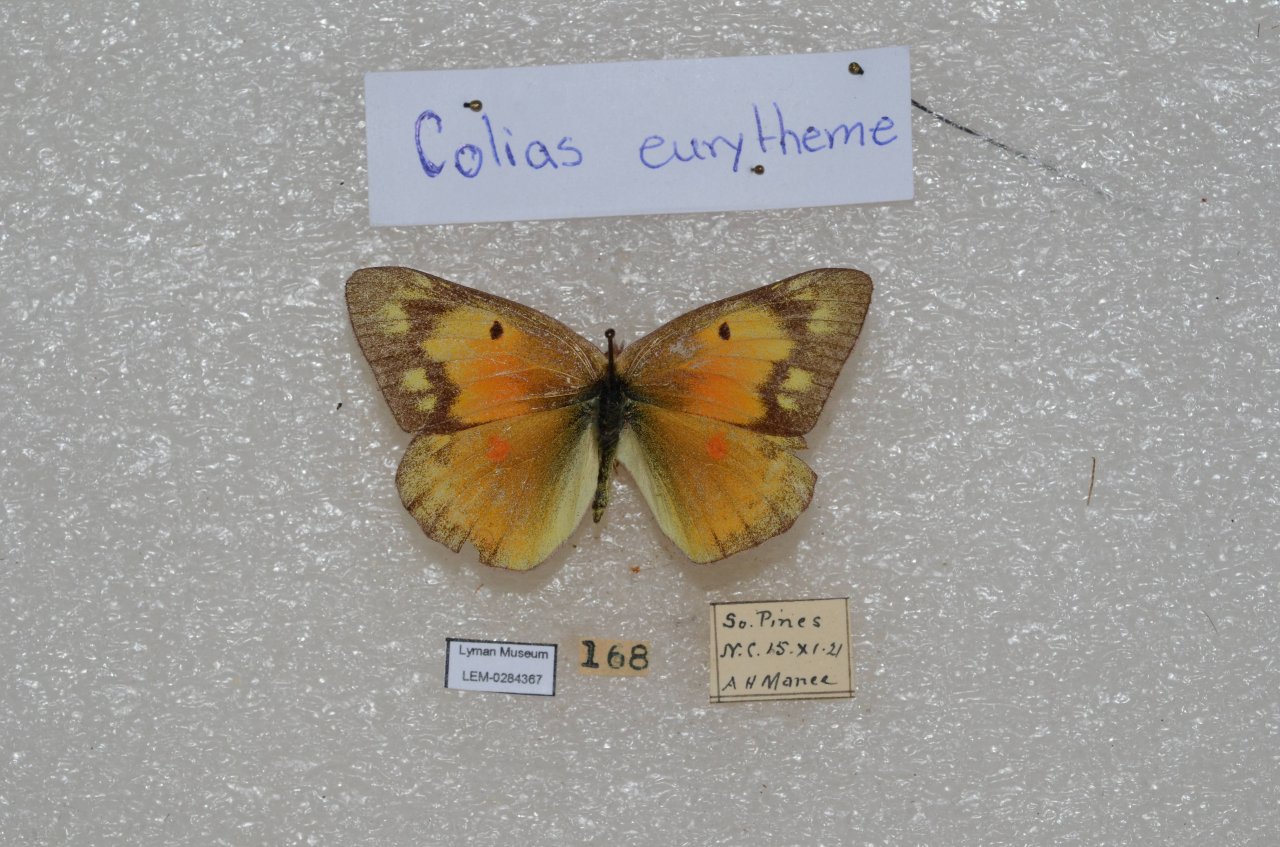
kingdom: Animalia
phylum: Arthropoda
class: Insecta
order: Lepidoptera
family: Pieridae
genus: Colias
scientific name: Colias eurytheme
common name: Orange Sulphur
